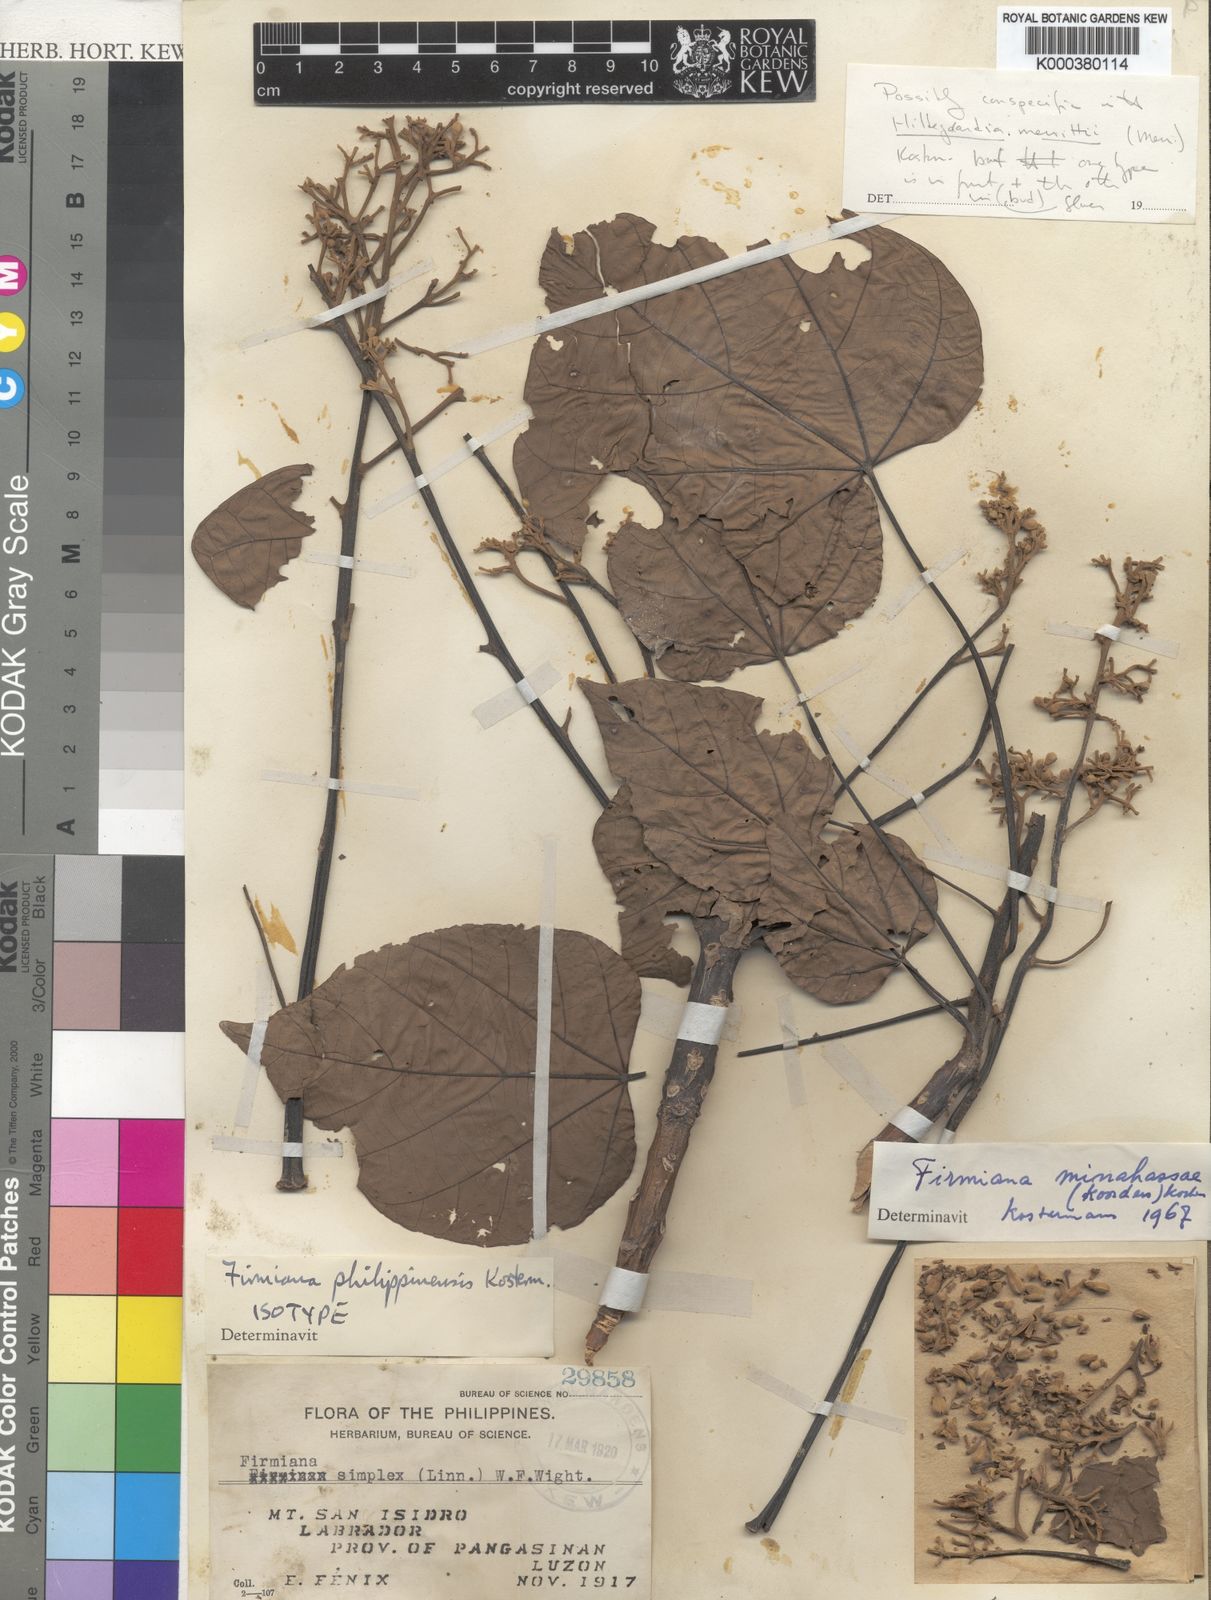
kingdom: Plantae
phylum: Tracheophyta
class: Magnoliopsida
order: Malvales
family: Malvaceae
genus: Firmiana
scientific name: Firmiana philippinensis
